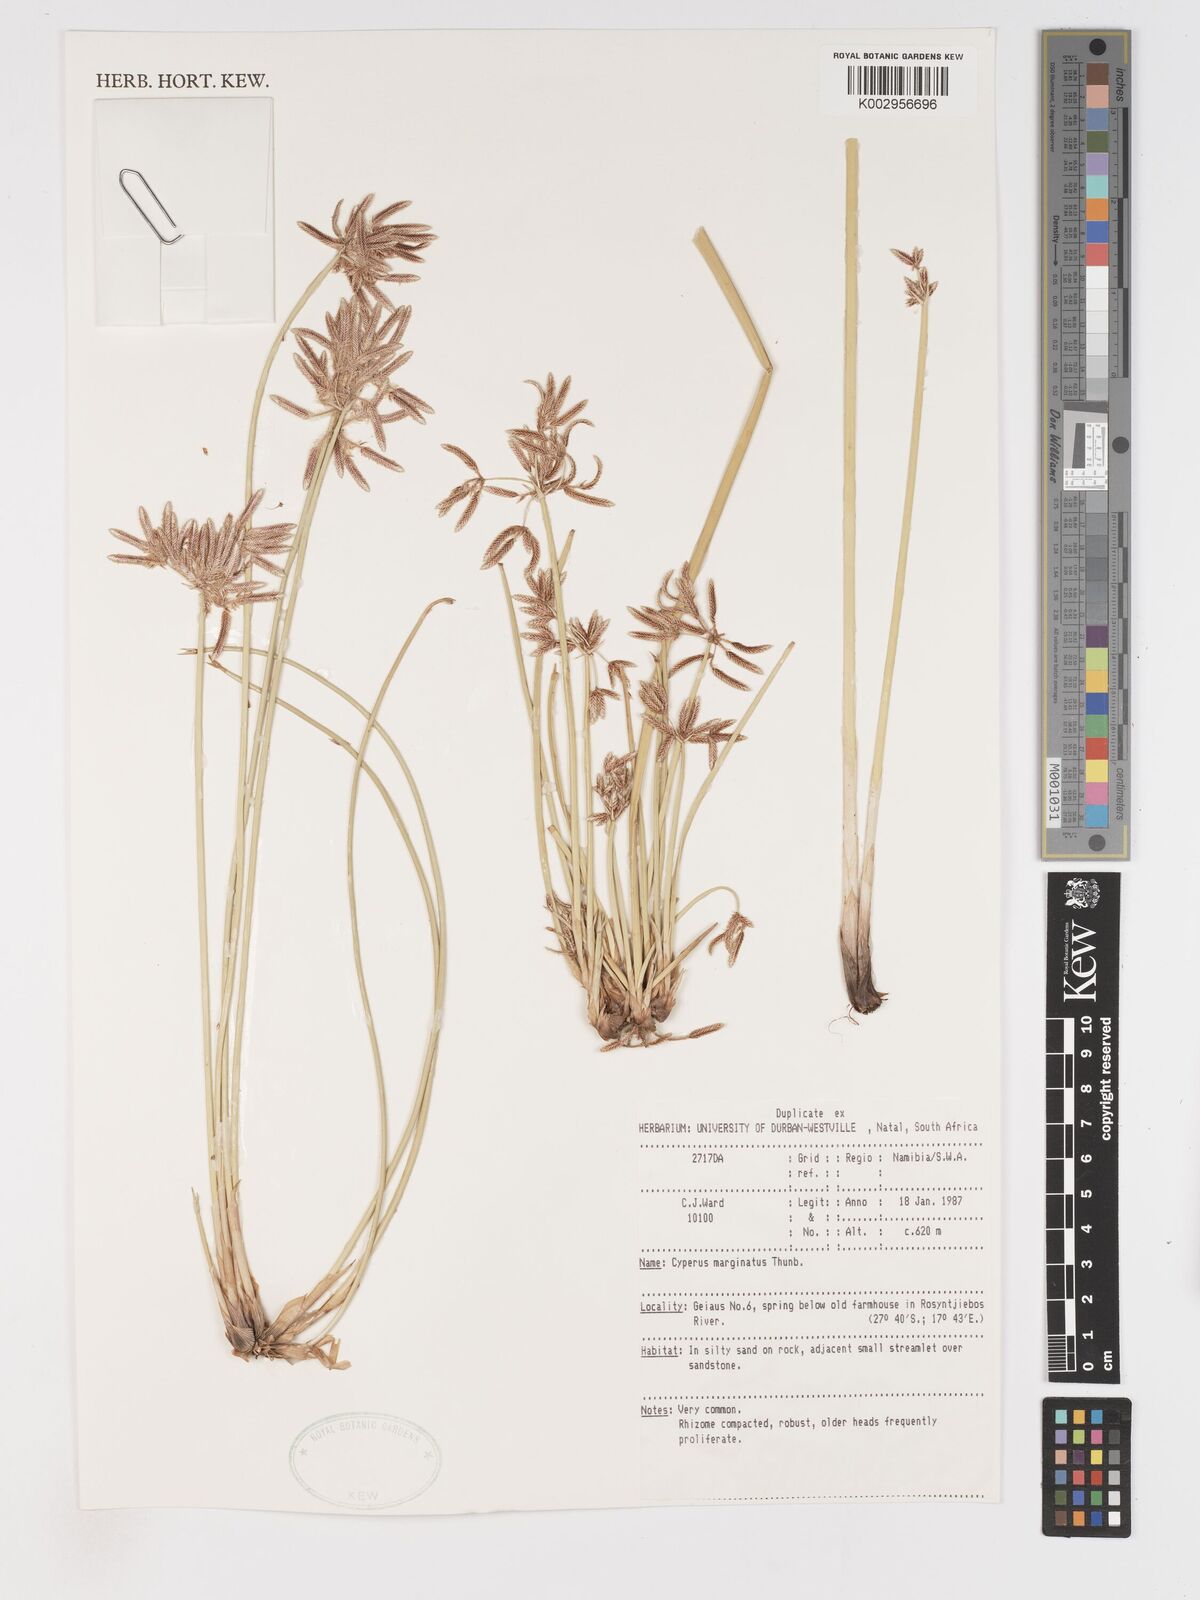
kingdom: Plantae
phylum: Tracheophyta
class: Liliopsida
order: Poales
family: Cyperaceae
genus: Cyperus
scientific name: Cyperus marginatus
